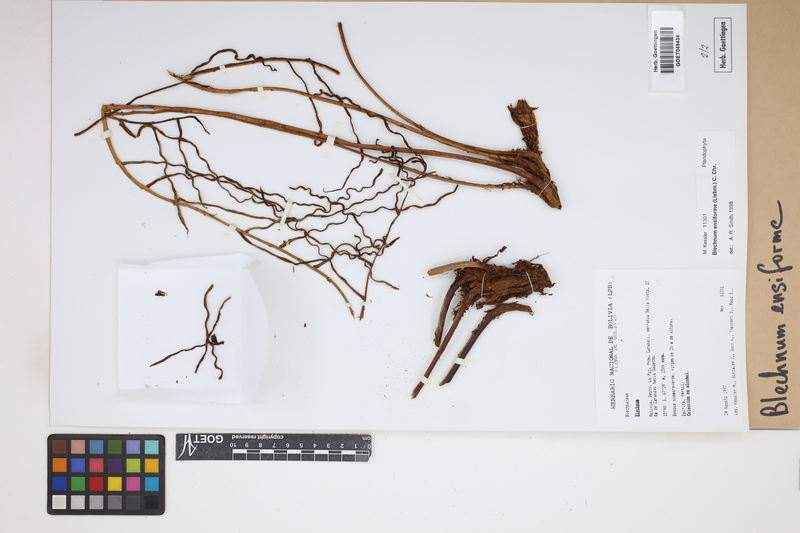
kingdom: Plantae
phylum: Tracheophyta
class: Polypodiopsida
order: Polypodiales
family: Blechnaceae
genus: Lomaridium
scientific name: Lomaridium ensiforme
